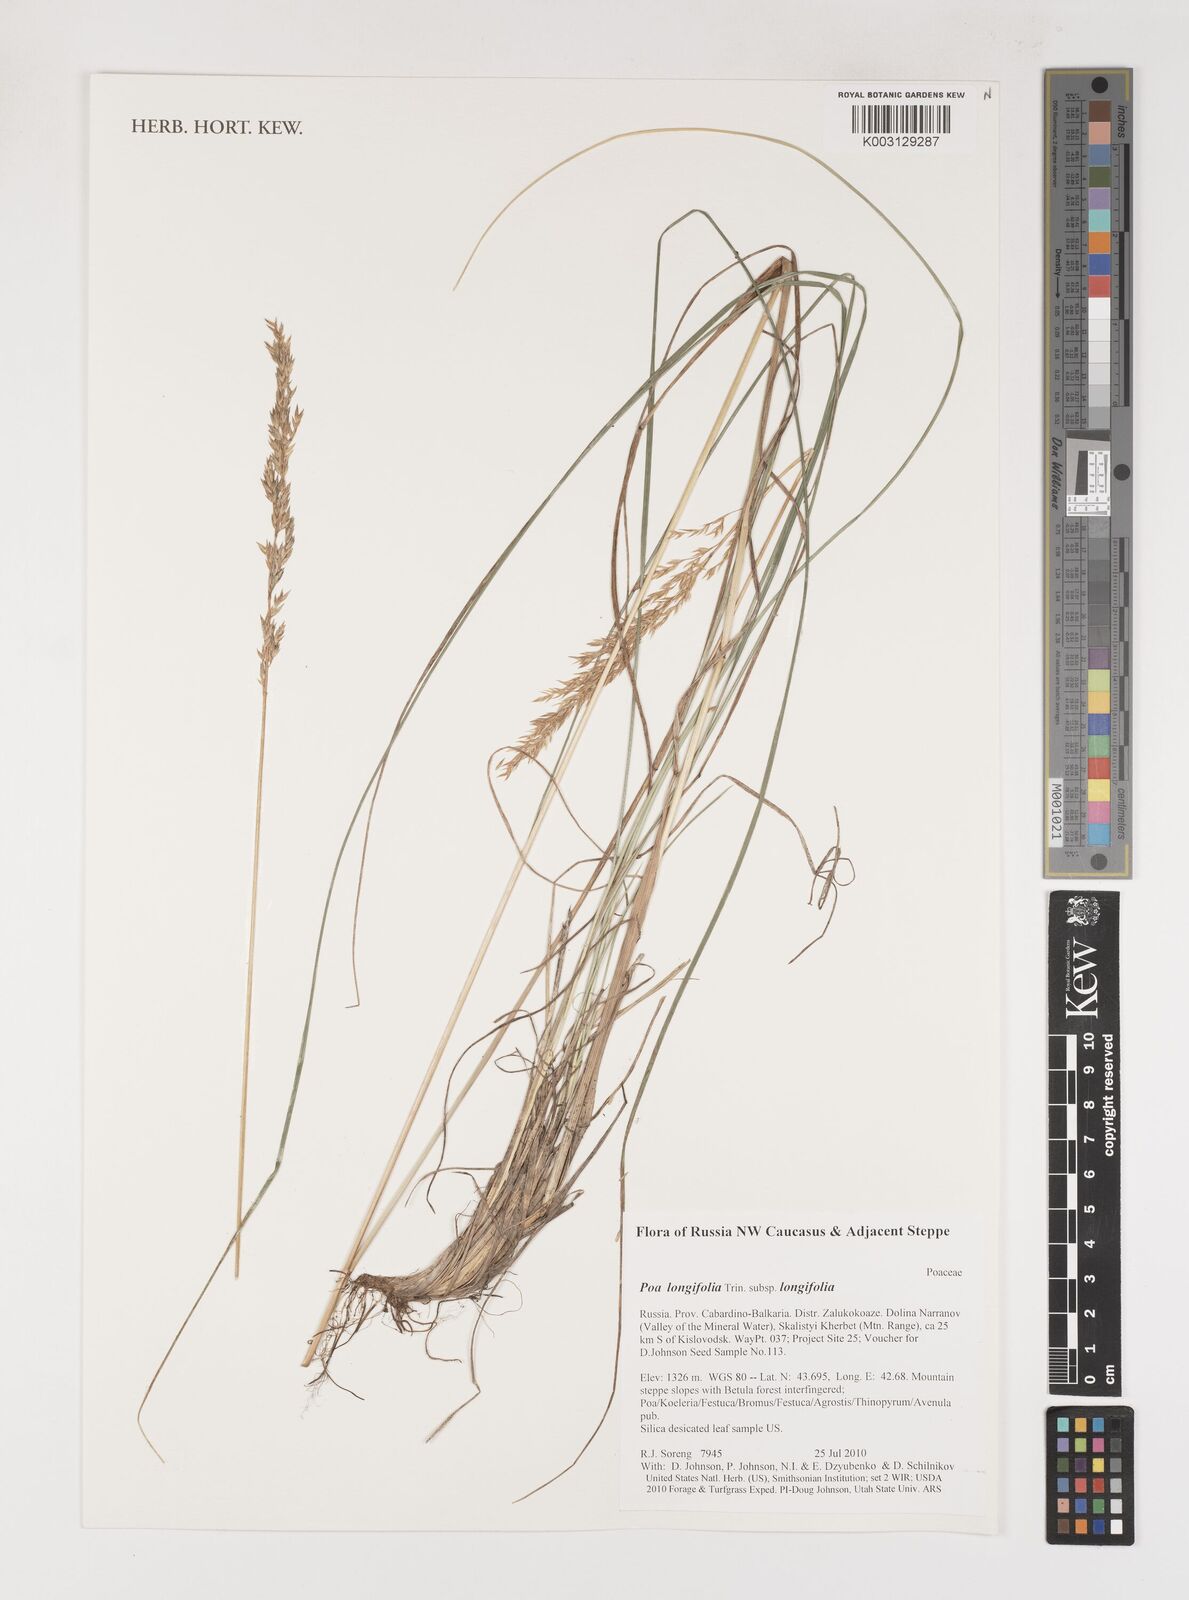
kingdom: Plantae
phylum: Tracheophyta
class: Liliopsida
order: Poales
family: Poaceae
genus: Poa
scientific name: Poa longifolia
